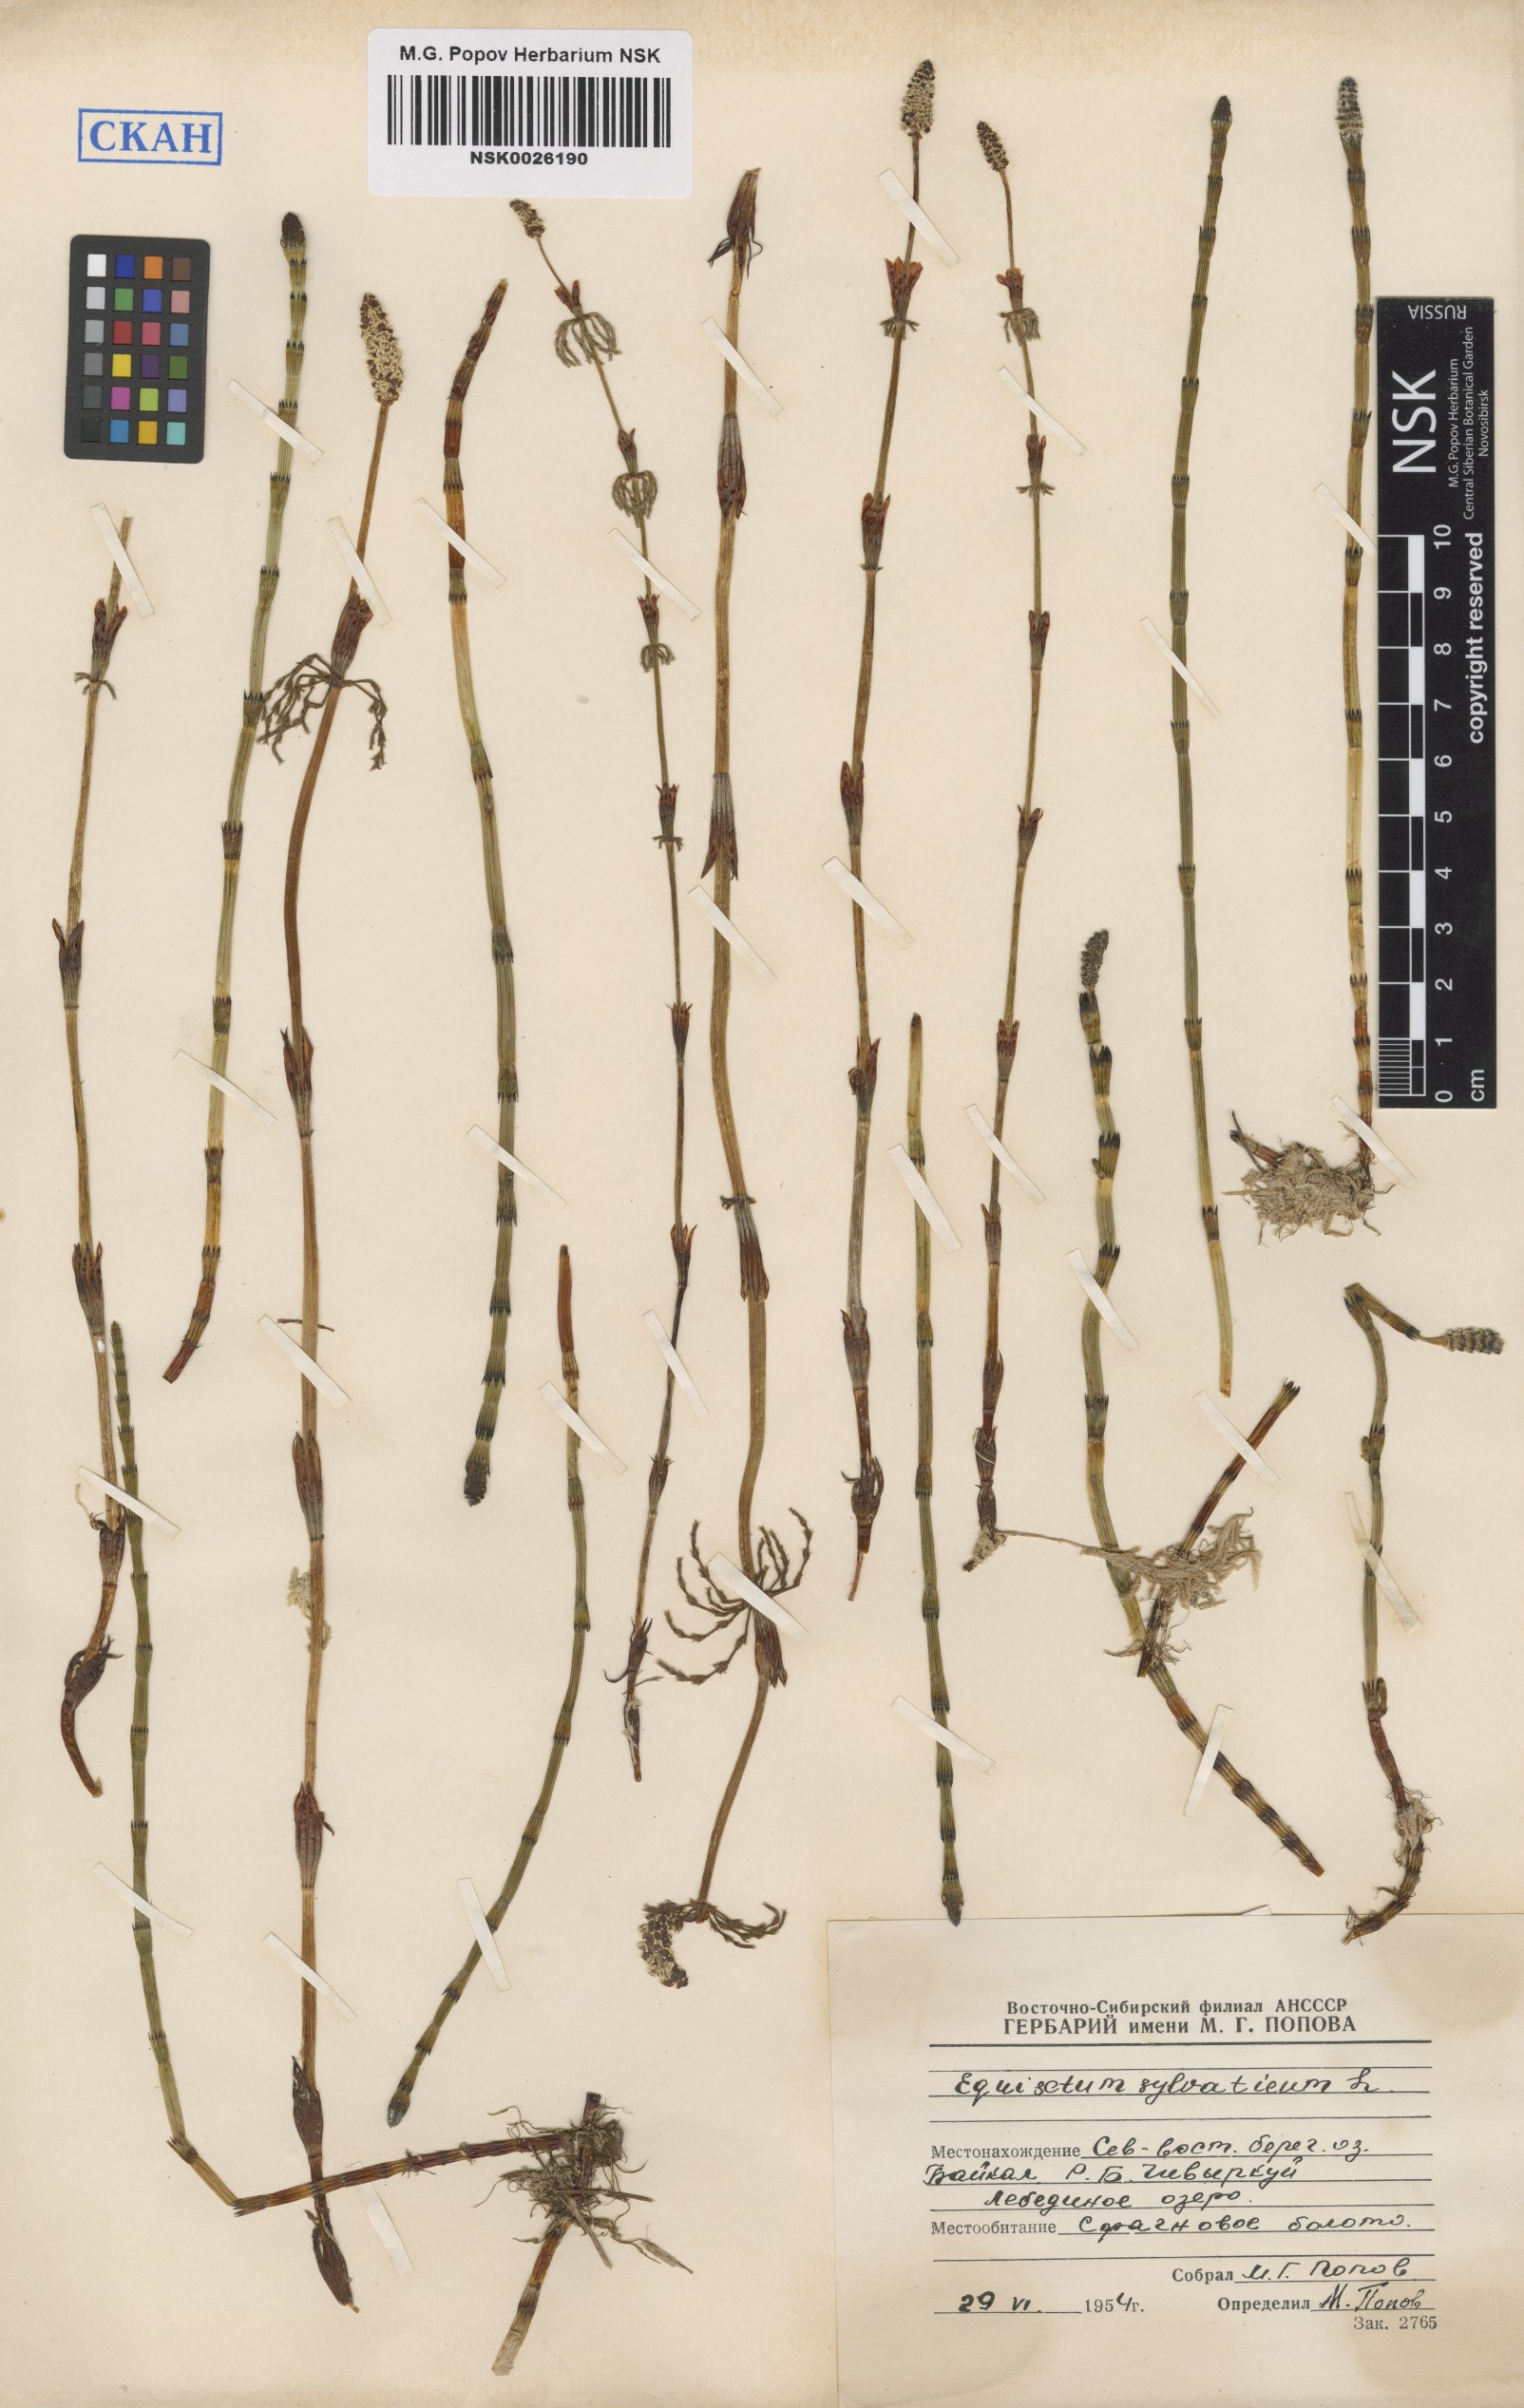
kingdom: Plantae
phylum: Tracheophyta
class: Polypodiopsida
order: Equisetales
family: Equisetaceae
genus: Equisetum
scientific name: Equisetum sylvaticum
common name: Wood horsetail
